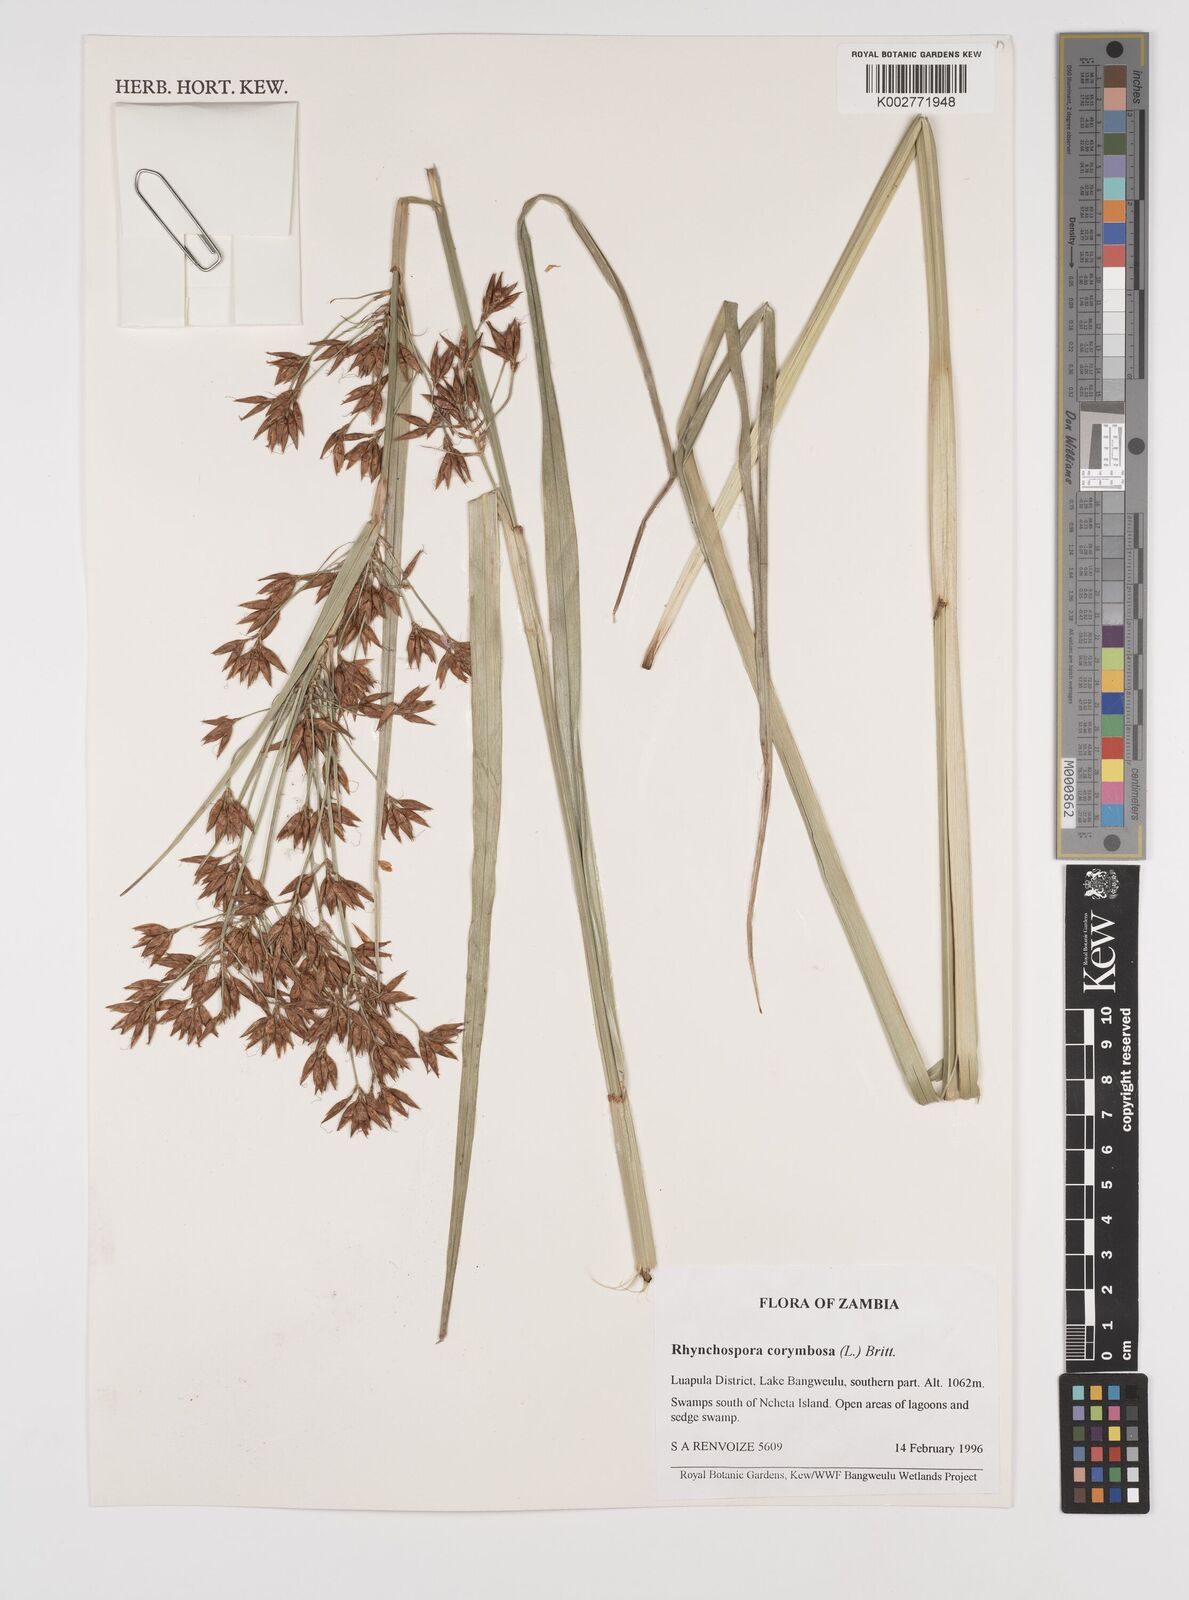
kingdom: Plantae
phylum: Tracheophyta
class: Liliopsida
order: Poales
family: Cyperaceae
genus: Rhynchospora
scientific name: Rhynchospora corymbosa
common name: Golden beak sedge
